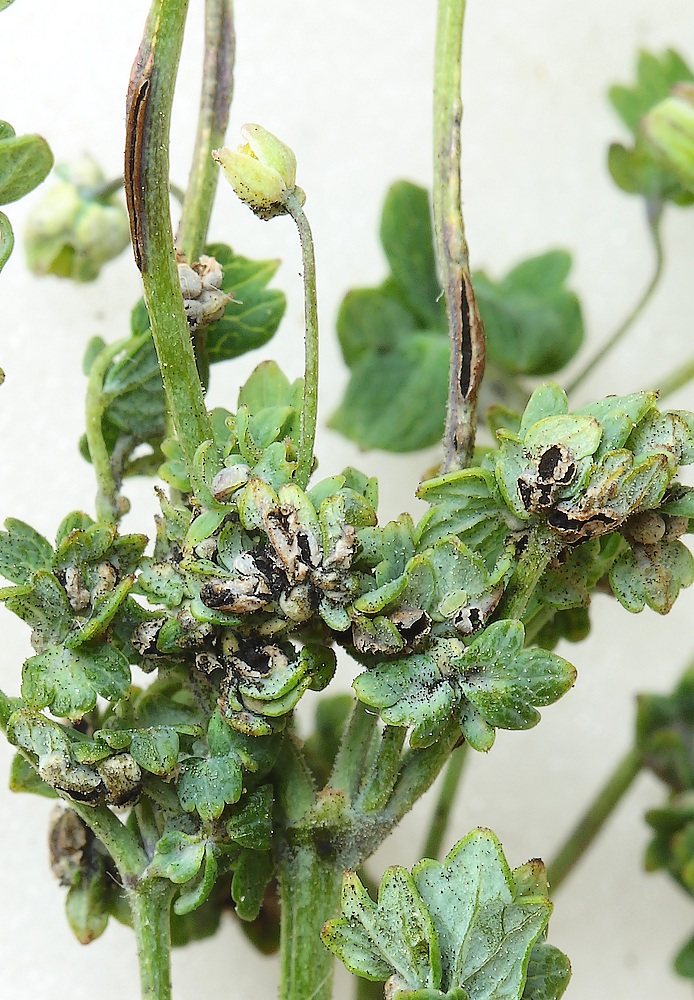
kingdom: Fungi
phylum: Basidiomycota
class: Ustilaginomycetes
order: Urocystidales
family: Urocystidaceae
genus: Urocystis
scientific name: Urocystis sorosporioides
